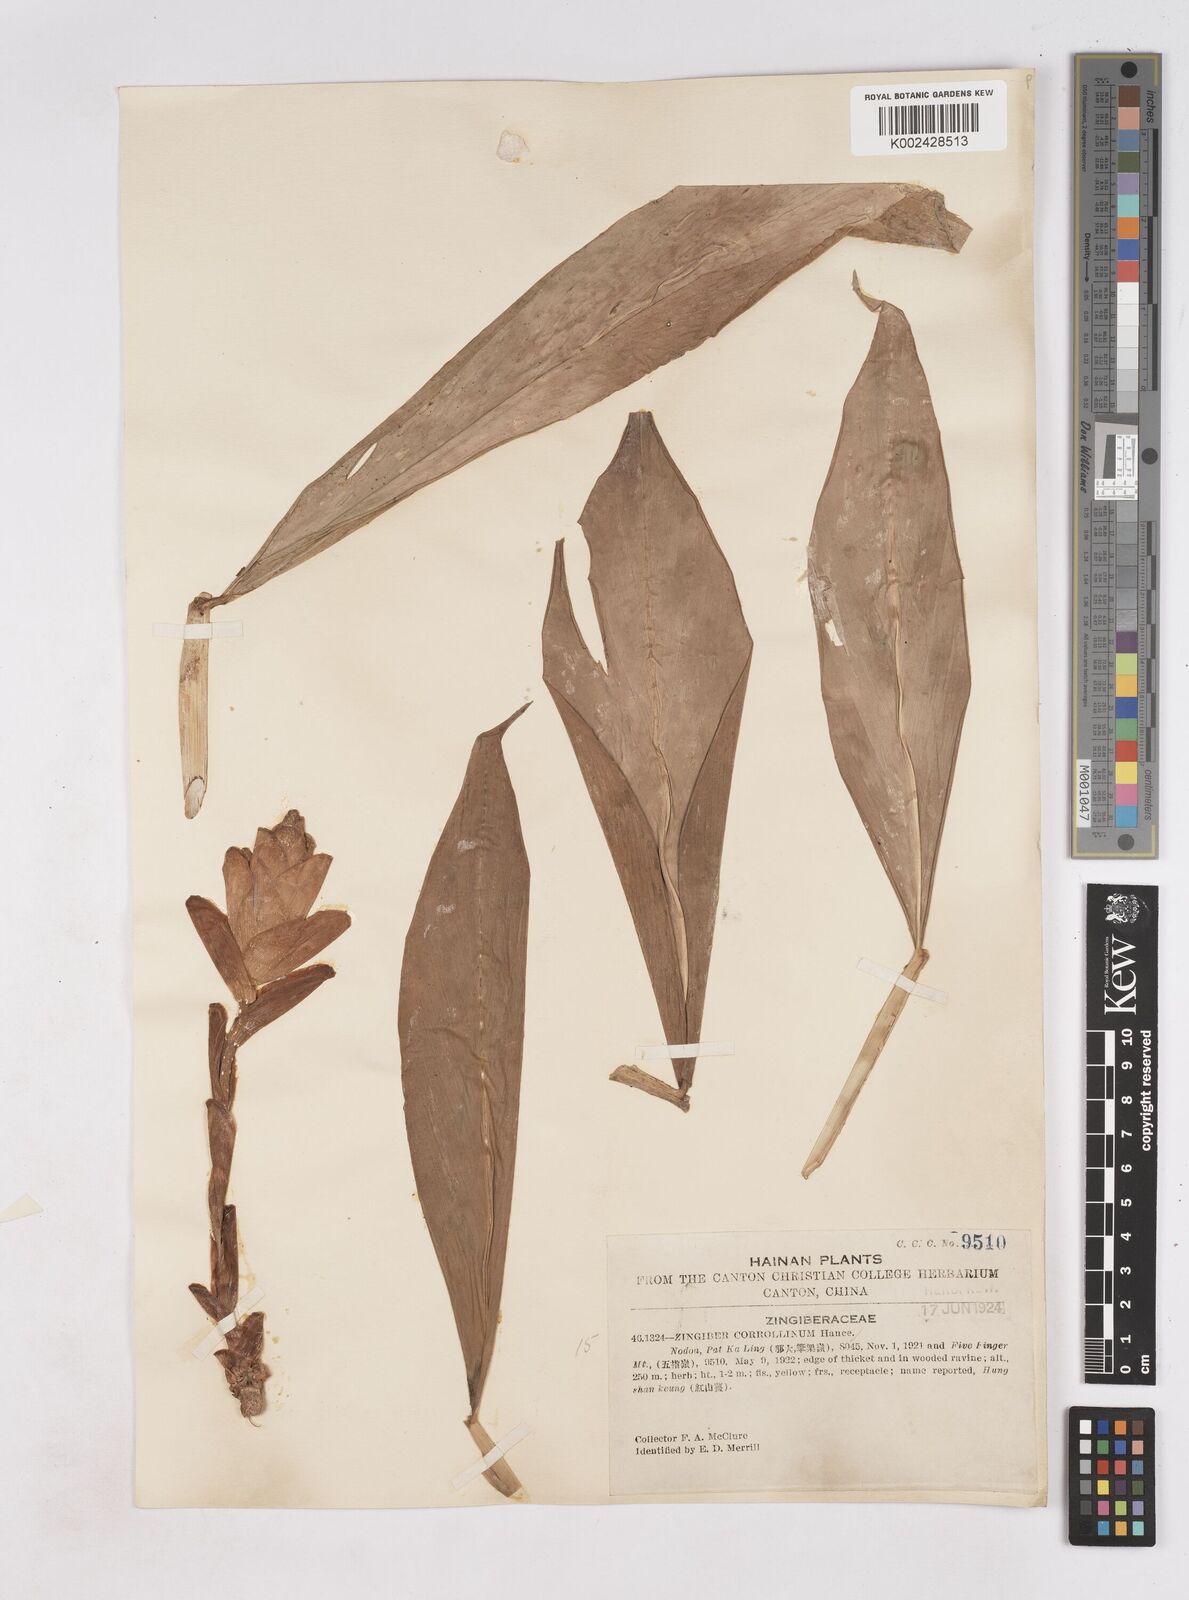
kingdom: Plantae
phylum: Tracheophyta
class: Liliopsida
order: Zingiberales
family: Zingiberaceae
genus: Zingiber
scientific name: Zingiber corallinum
